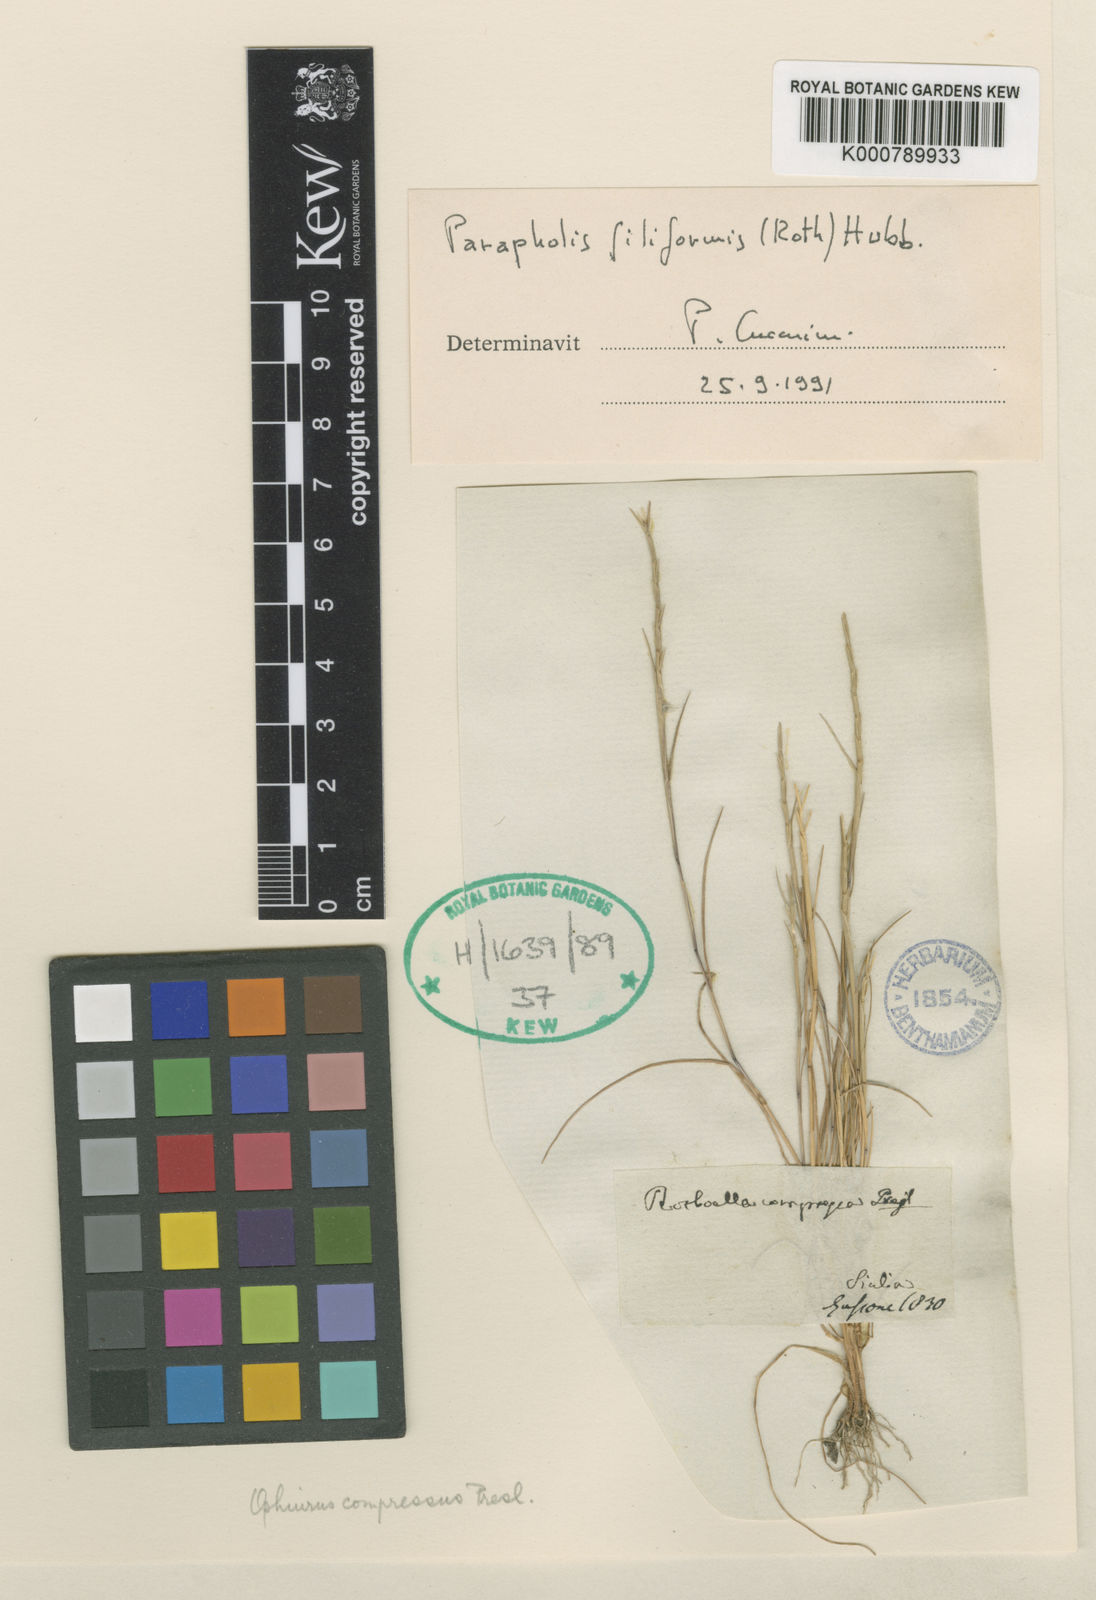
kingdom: Plantae
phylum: Tracheophyta
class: Liliopsida
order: Poales
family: Poaceae
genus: Parapholis
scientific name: Parapholis filiformis
